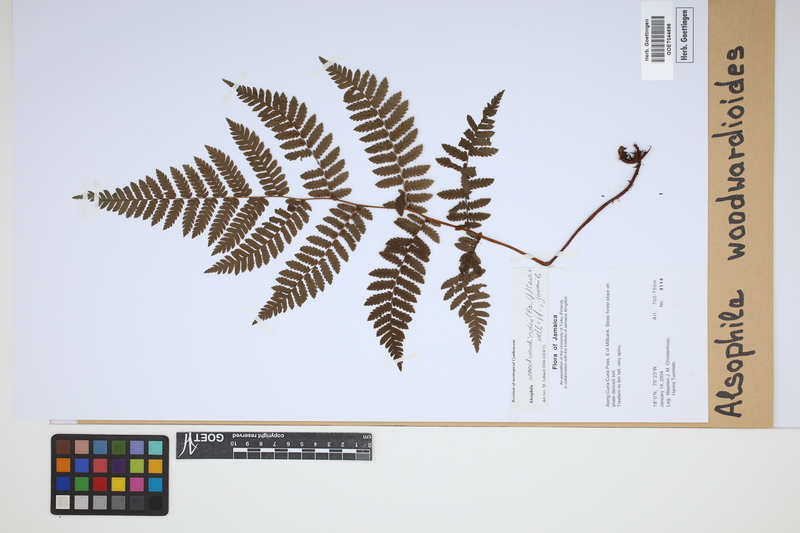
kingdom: Plantae
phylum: Tracheophyta
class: Polypodiopsida
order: Cyatheales
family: Cyatheaceae
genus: Alsophila
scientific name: Alsophila woodwardioides
